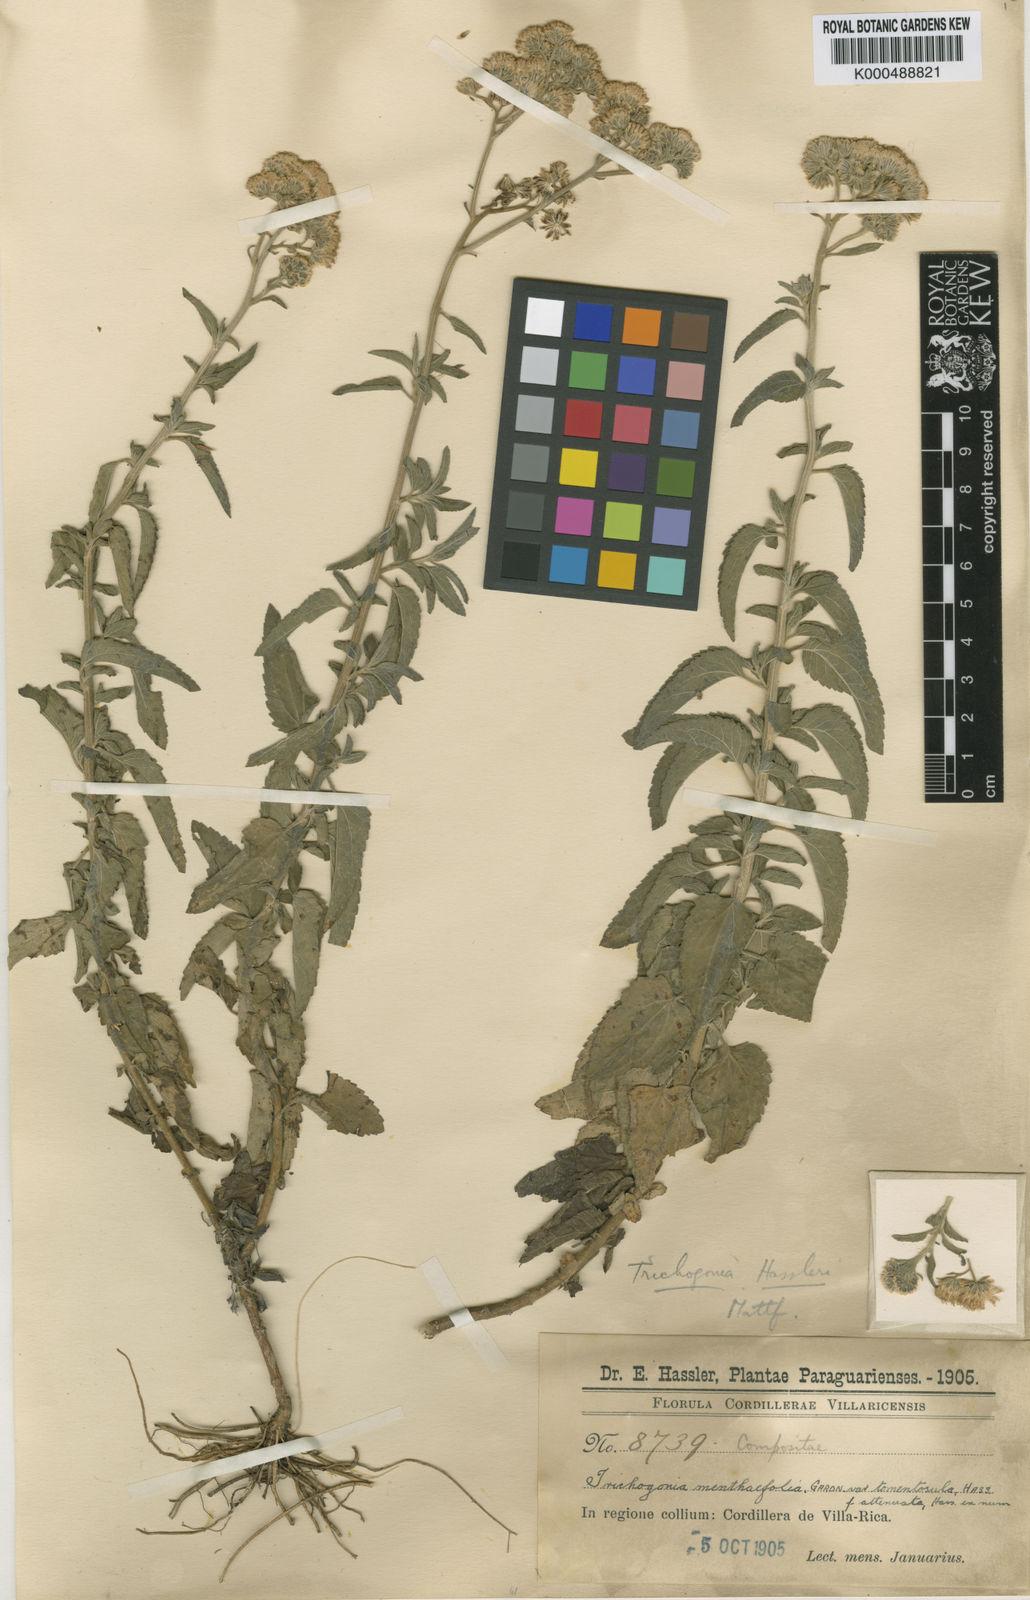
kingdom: Plantae
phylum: Tracheophyta
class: Magnoliopsida
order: Asterales
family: Asteraceae
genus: Trichogonia
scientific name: Trichogonia hassleri
